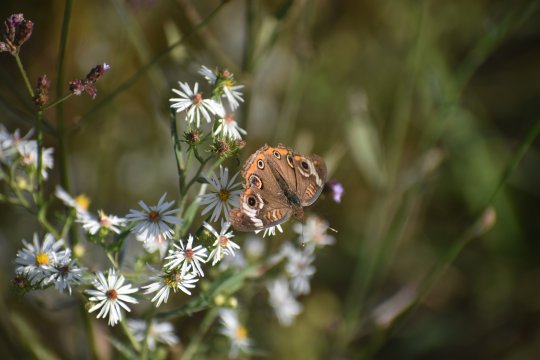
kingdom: Animalia
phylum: Arthropoda
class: Insecta
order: Lepidoptera
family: Nymphalidae
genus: Junonia
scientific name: Junonia coenia
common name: Common Buckeye
